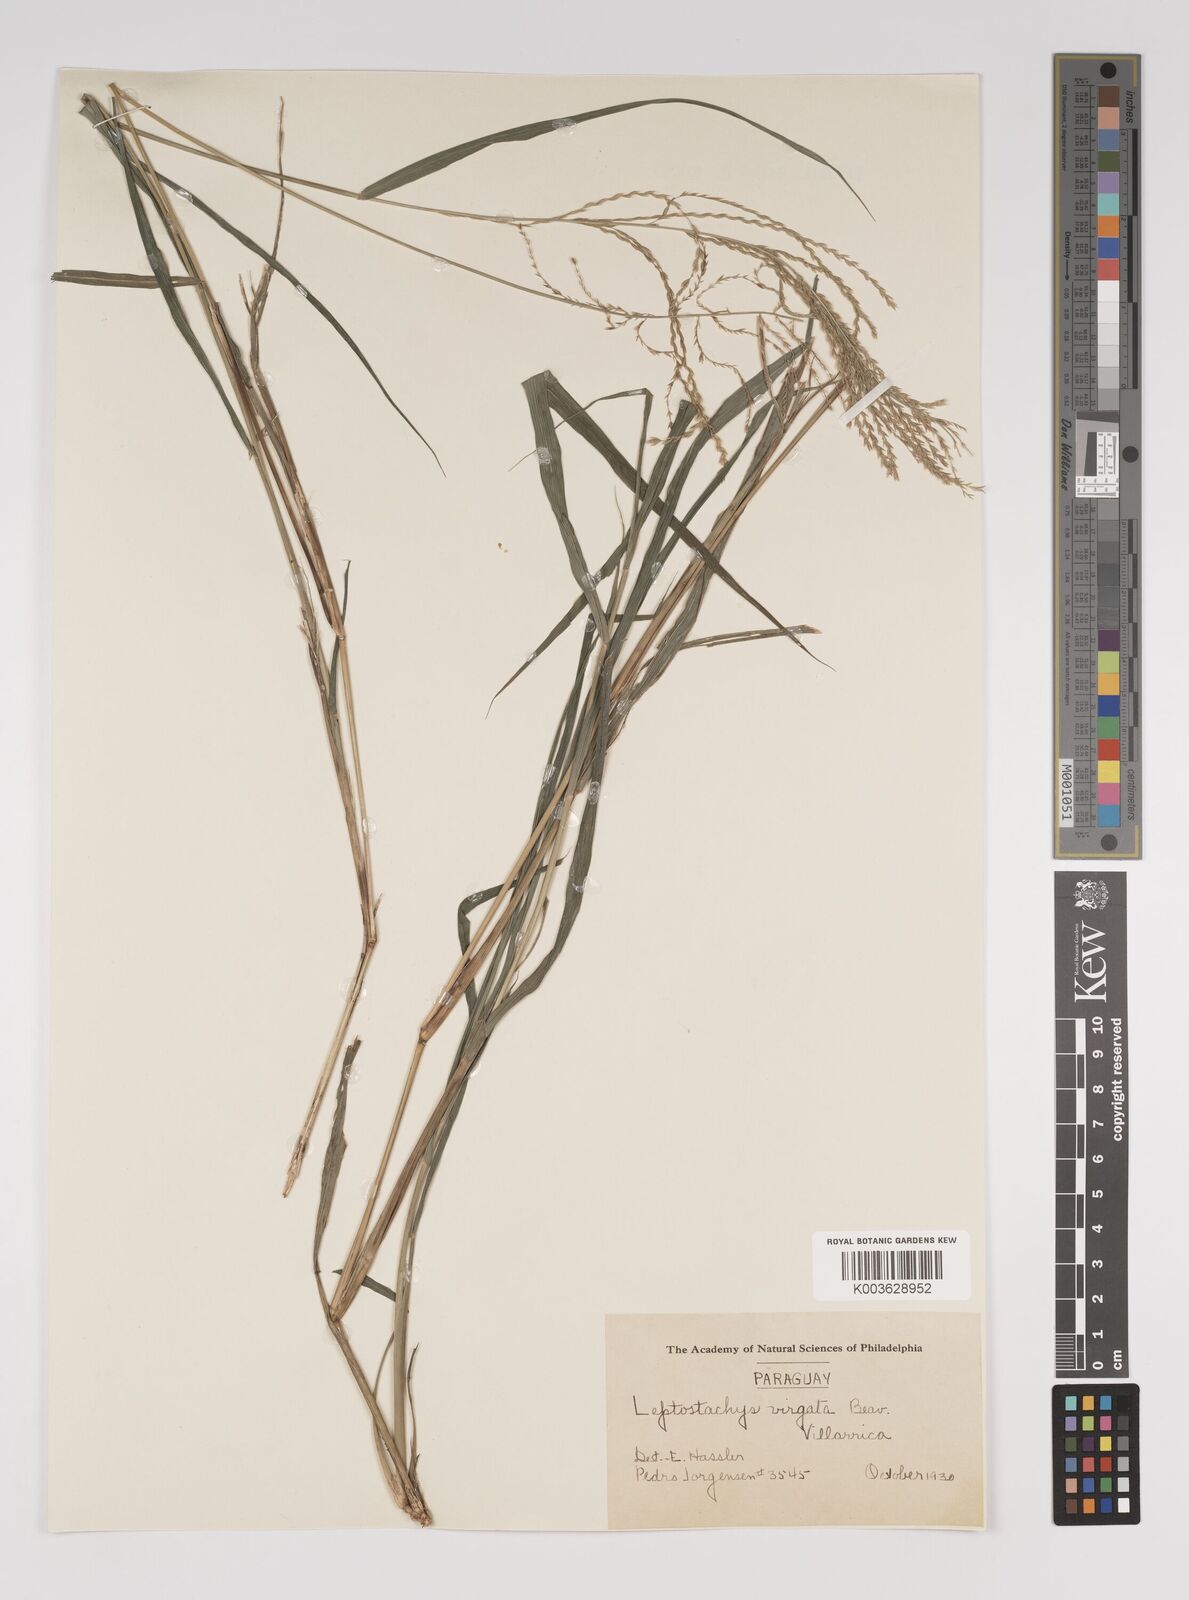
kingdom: Plantae
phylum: Tracheophyta
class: Liliopsida
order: Poales
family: Poaceae
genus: Leptochloa
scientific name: Leptochloa virgata
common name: Tropical sprangletop
